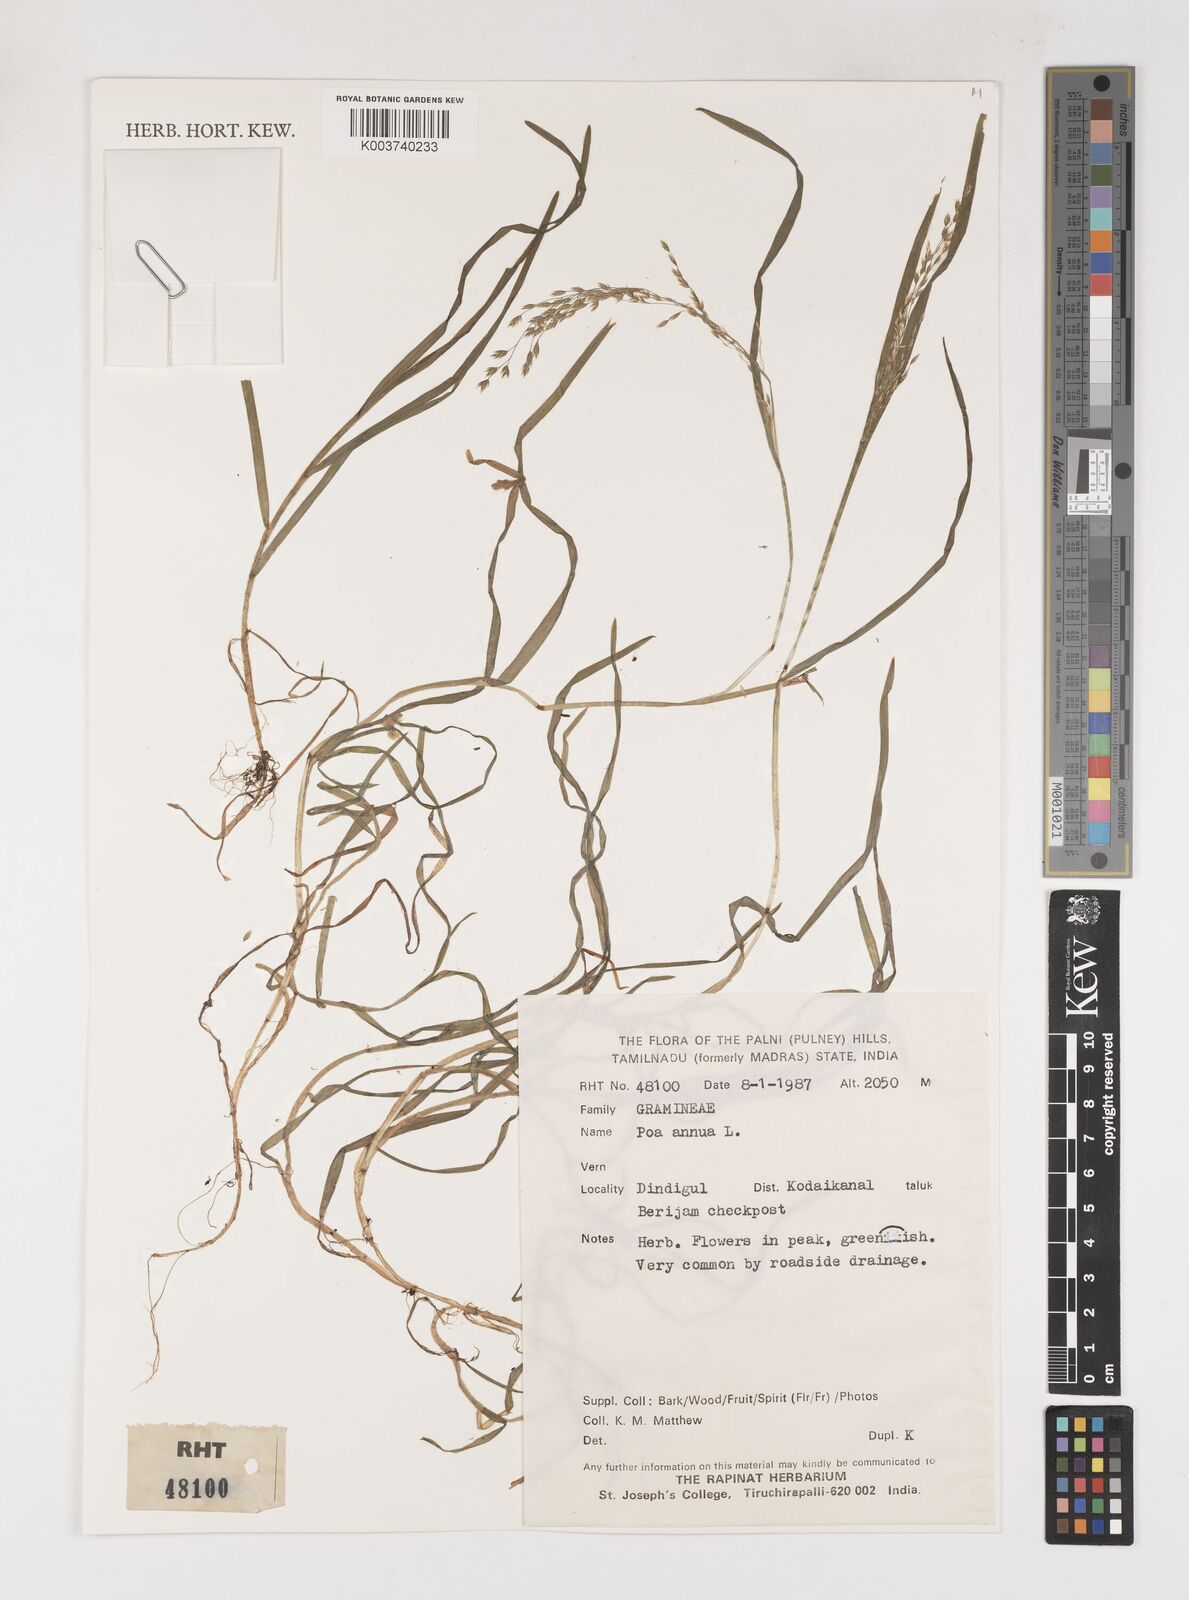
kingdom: Plantae
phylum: Tracheophyta
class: Liliopsida
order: Poales
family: Poaceae
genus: Poa
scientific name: Poa annua
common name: Annual bluegrass
